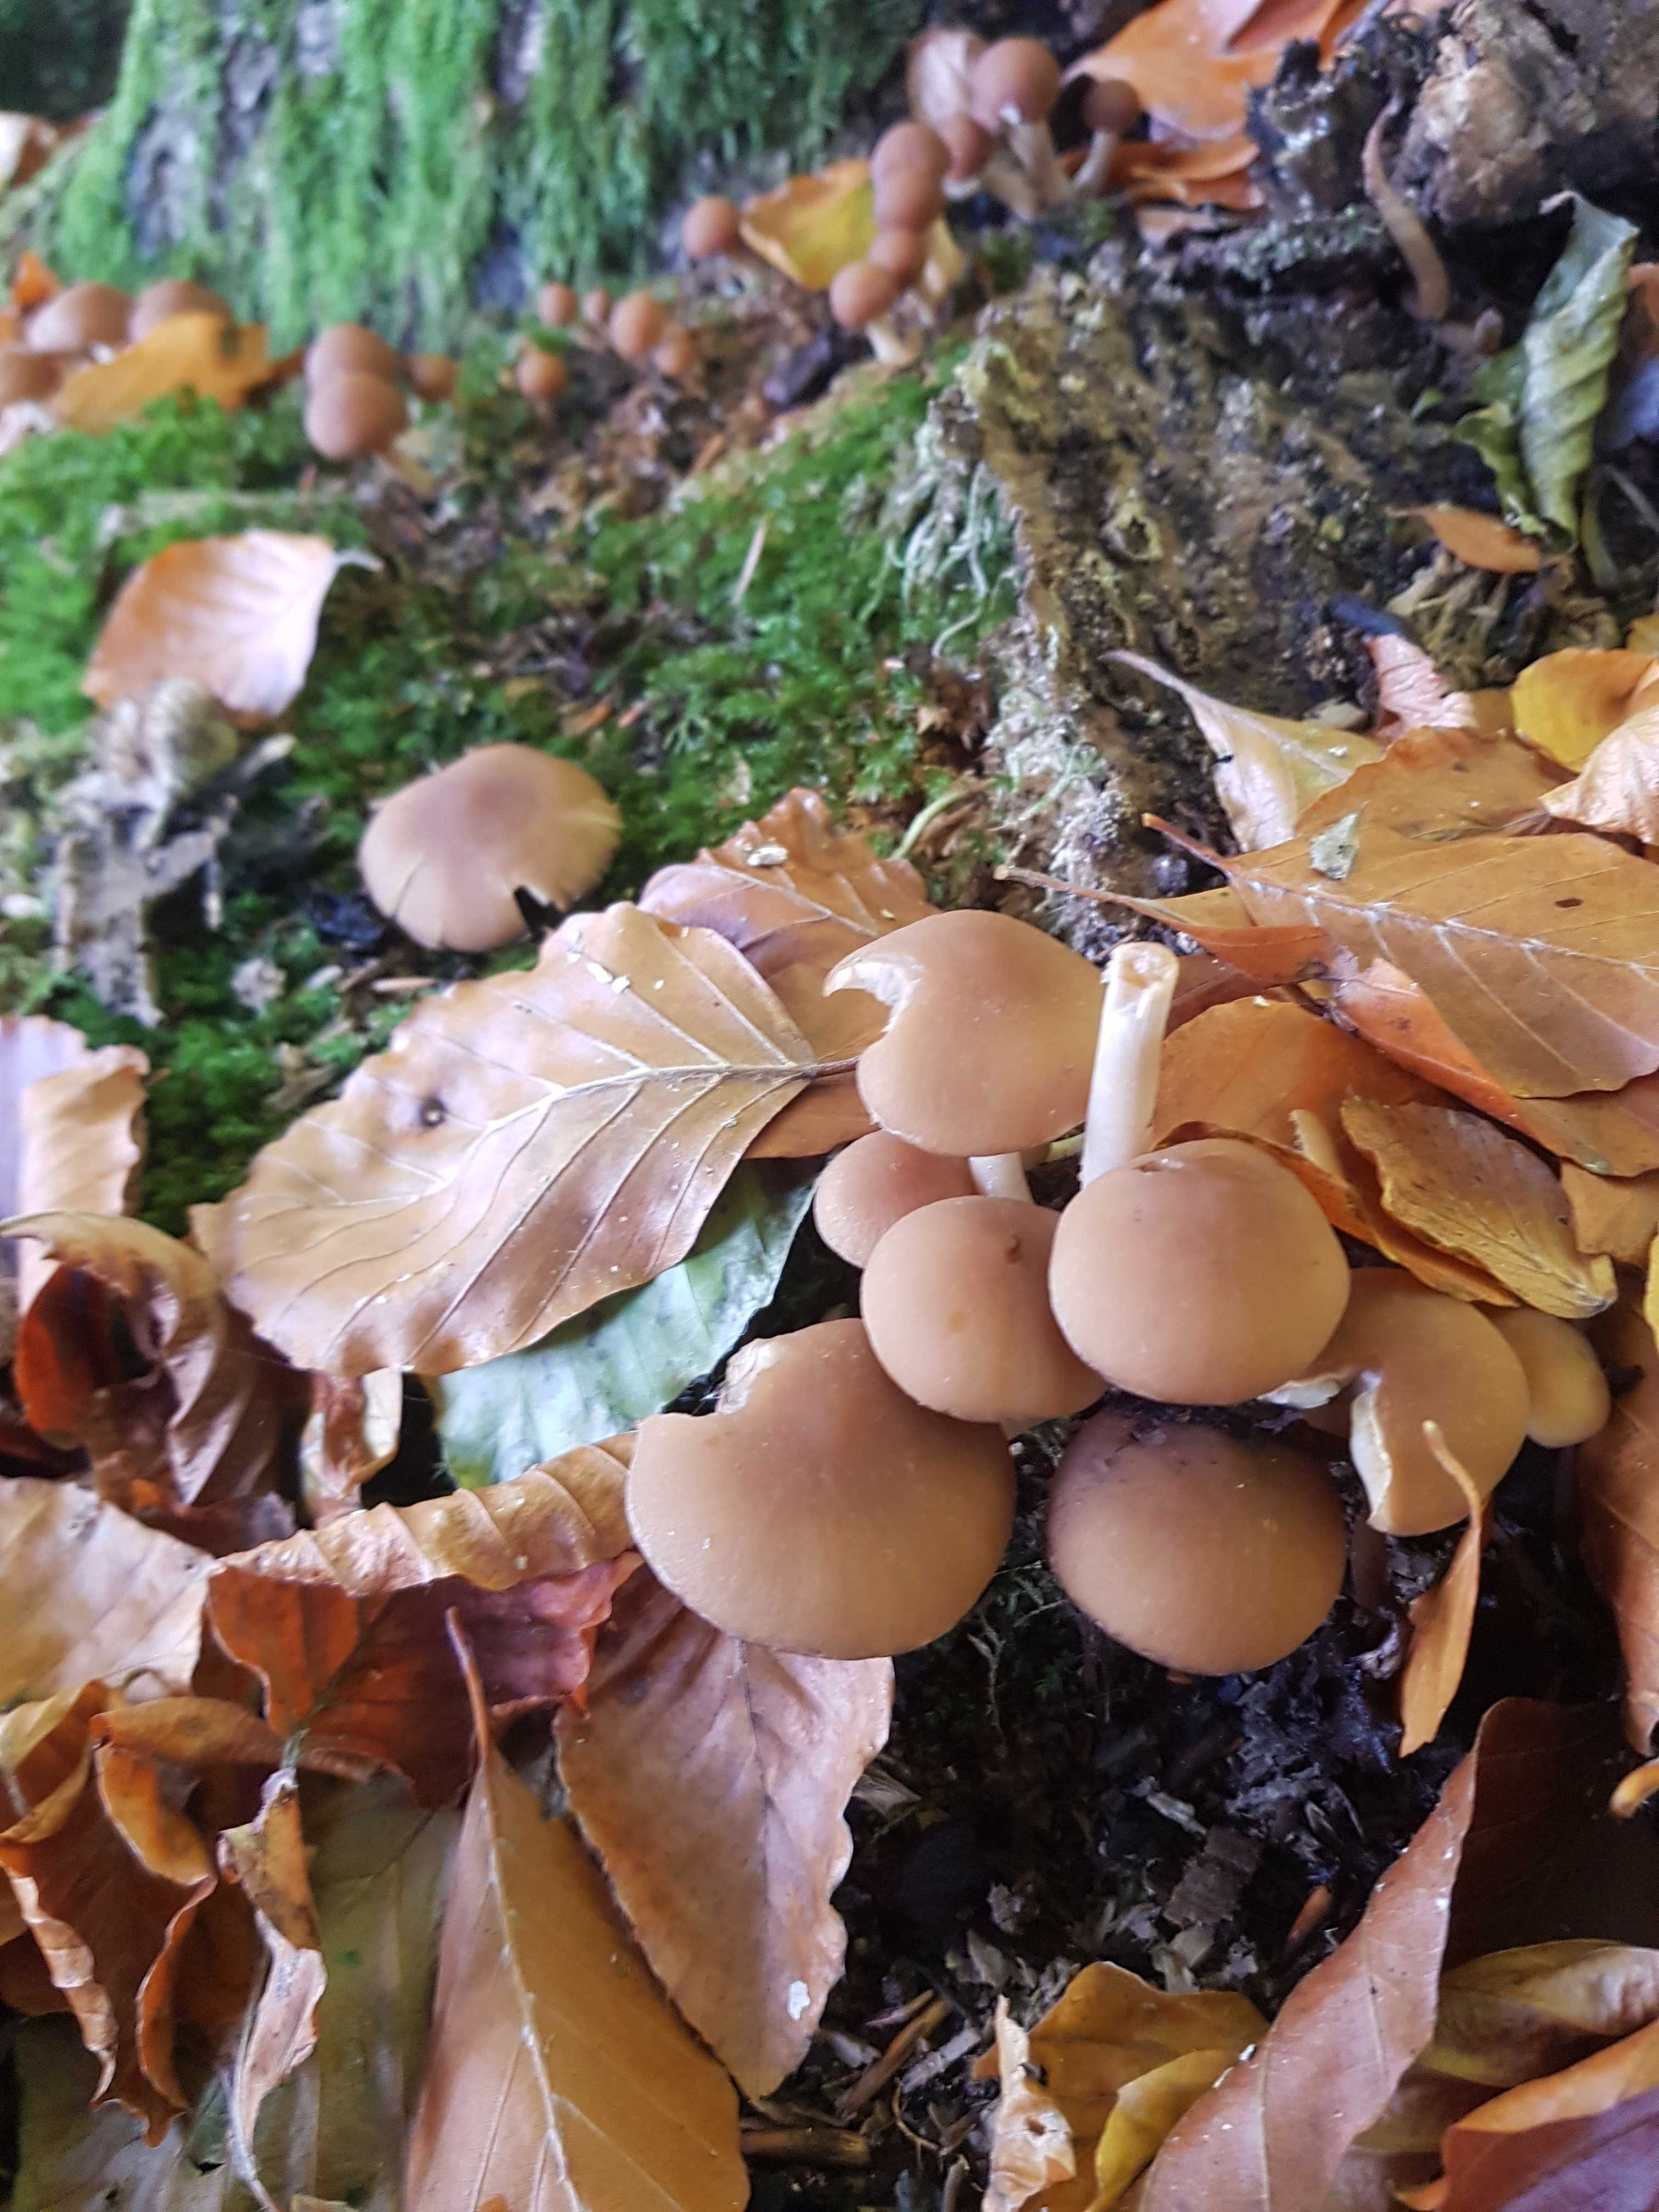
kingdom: Fungi
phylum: Basidiomycota
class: Agaricomycetes
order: Agaricales
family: Psathyrellaceae
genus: Psathyrella
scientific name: Psathyrella piluliformis
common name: lysstokket mørkhat
